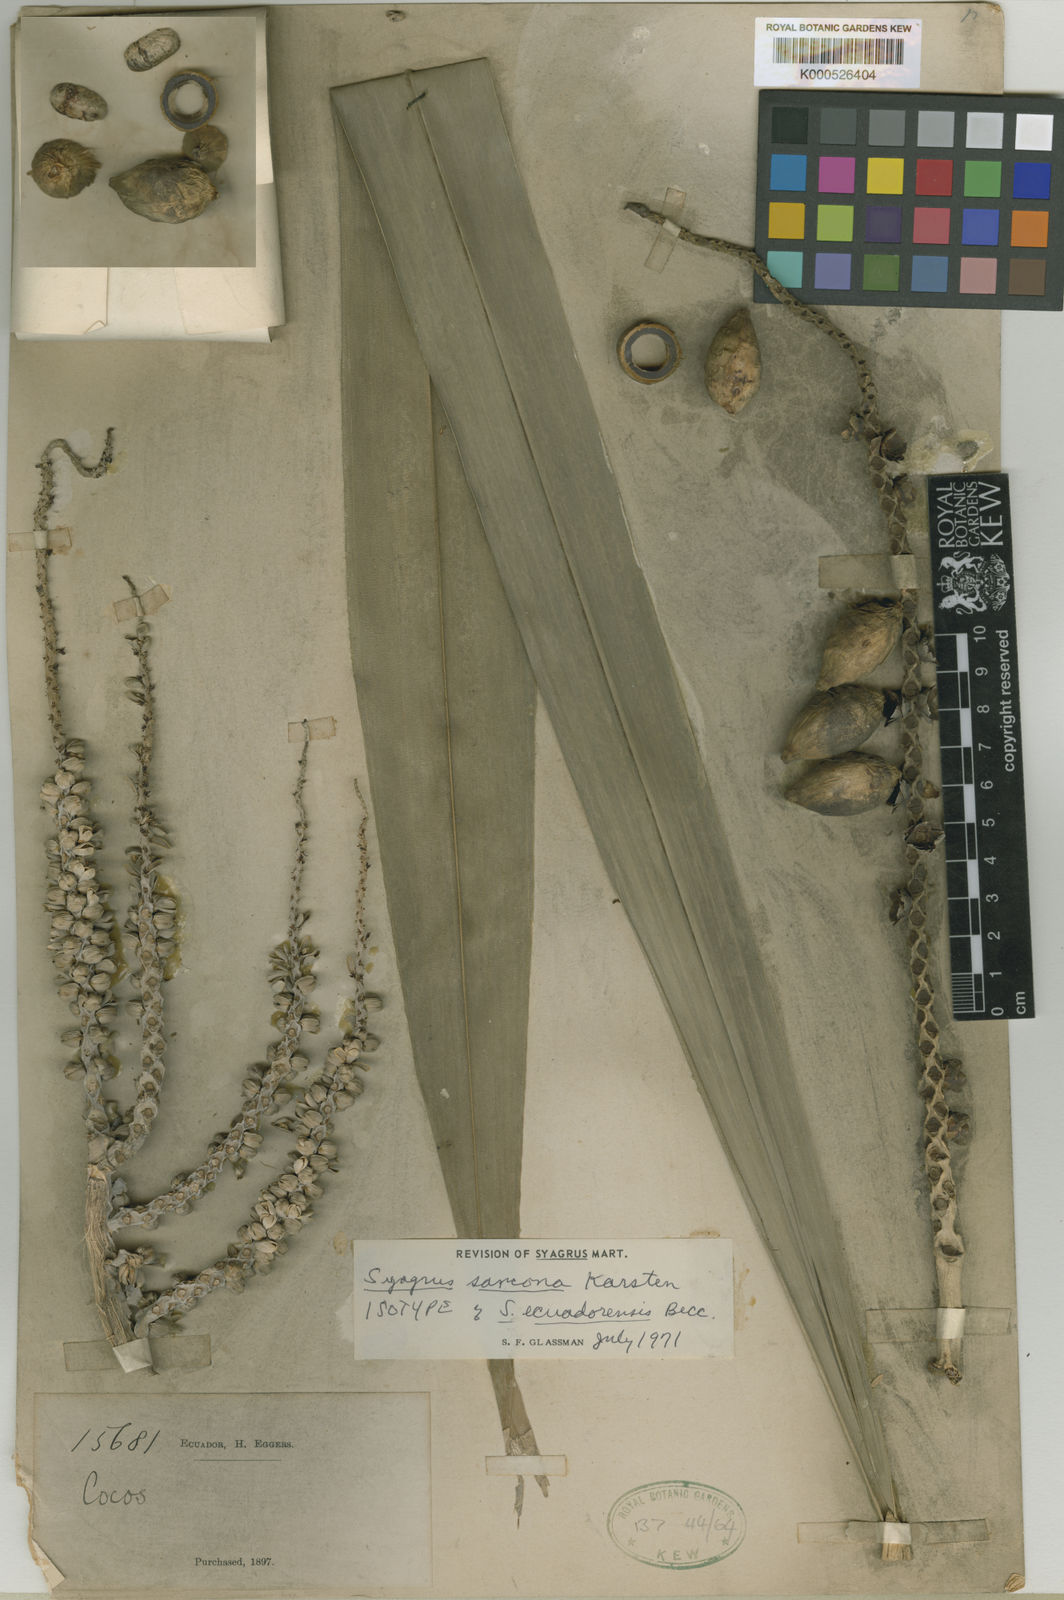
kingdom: Plantae
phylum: Tracheophyta
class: Liliopsida
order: Arecales
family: Arecaceae
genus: Syagrus
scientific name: Syagrus sancona
